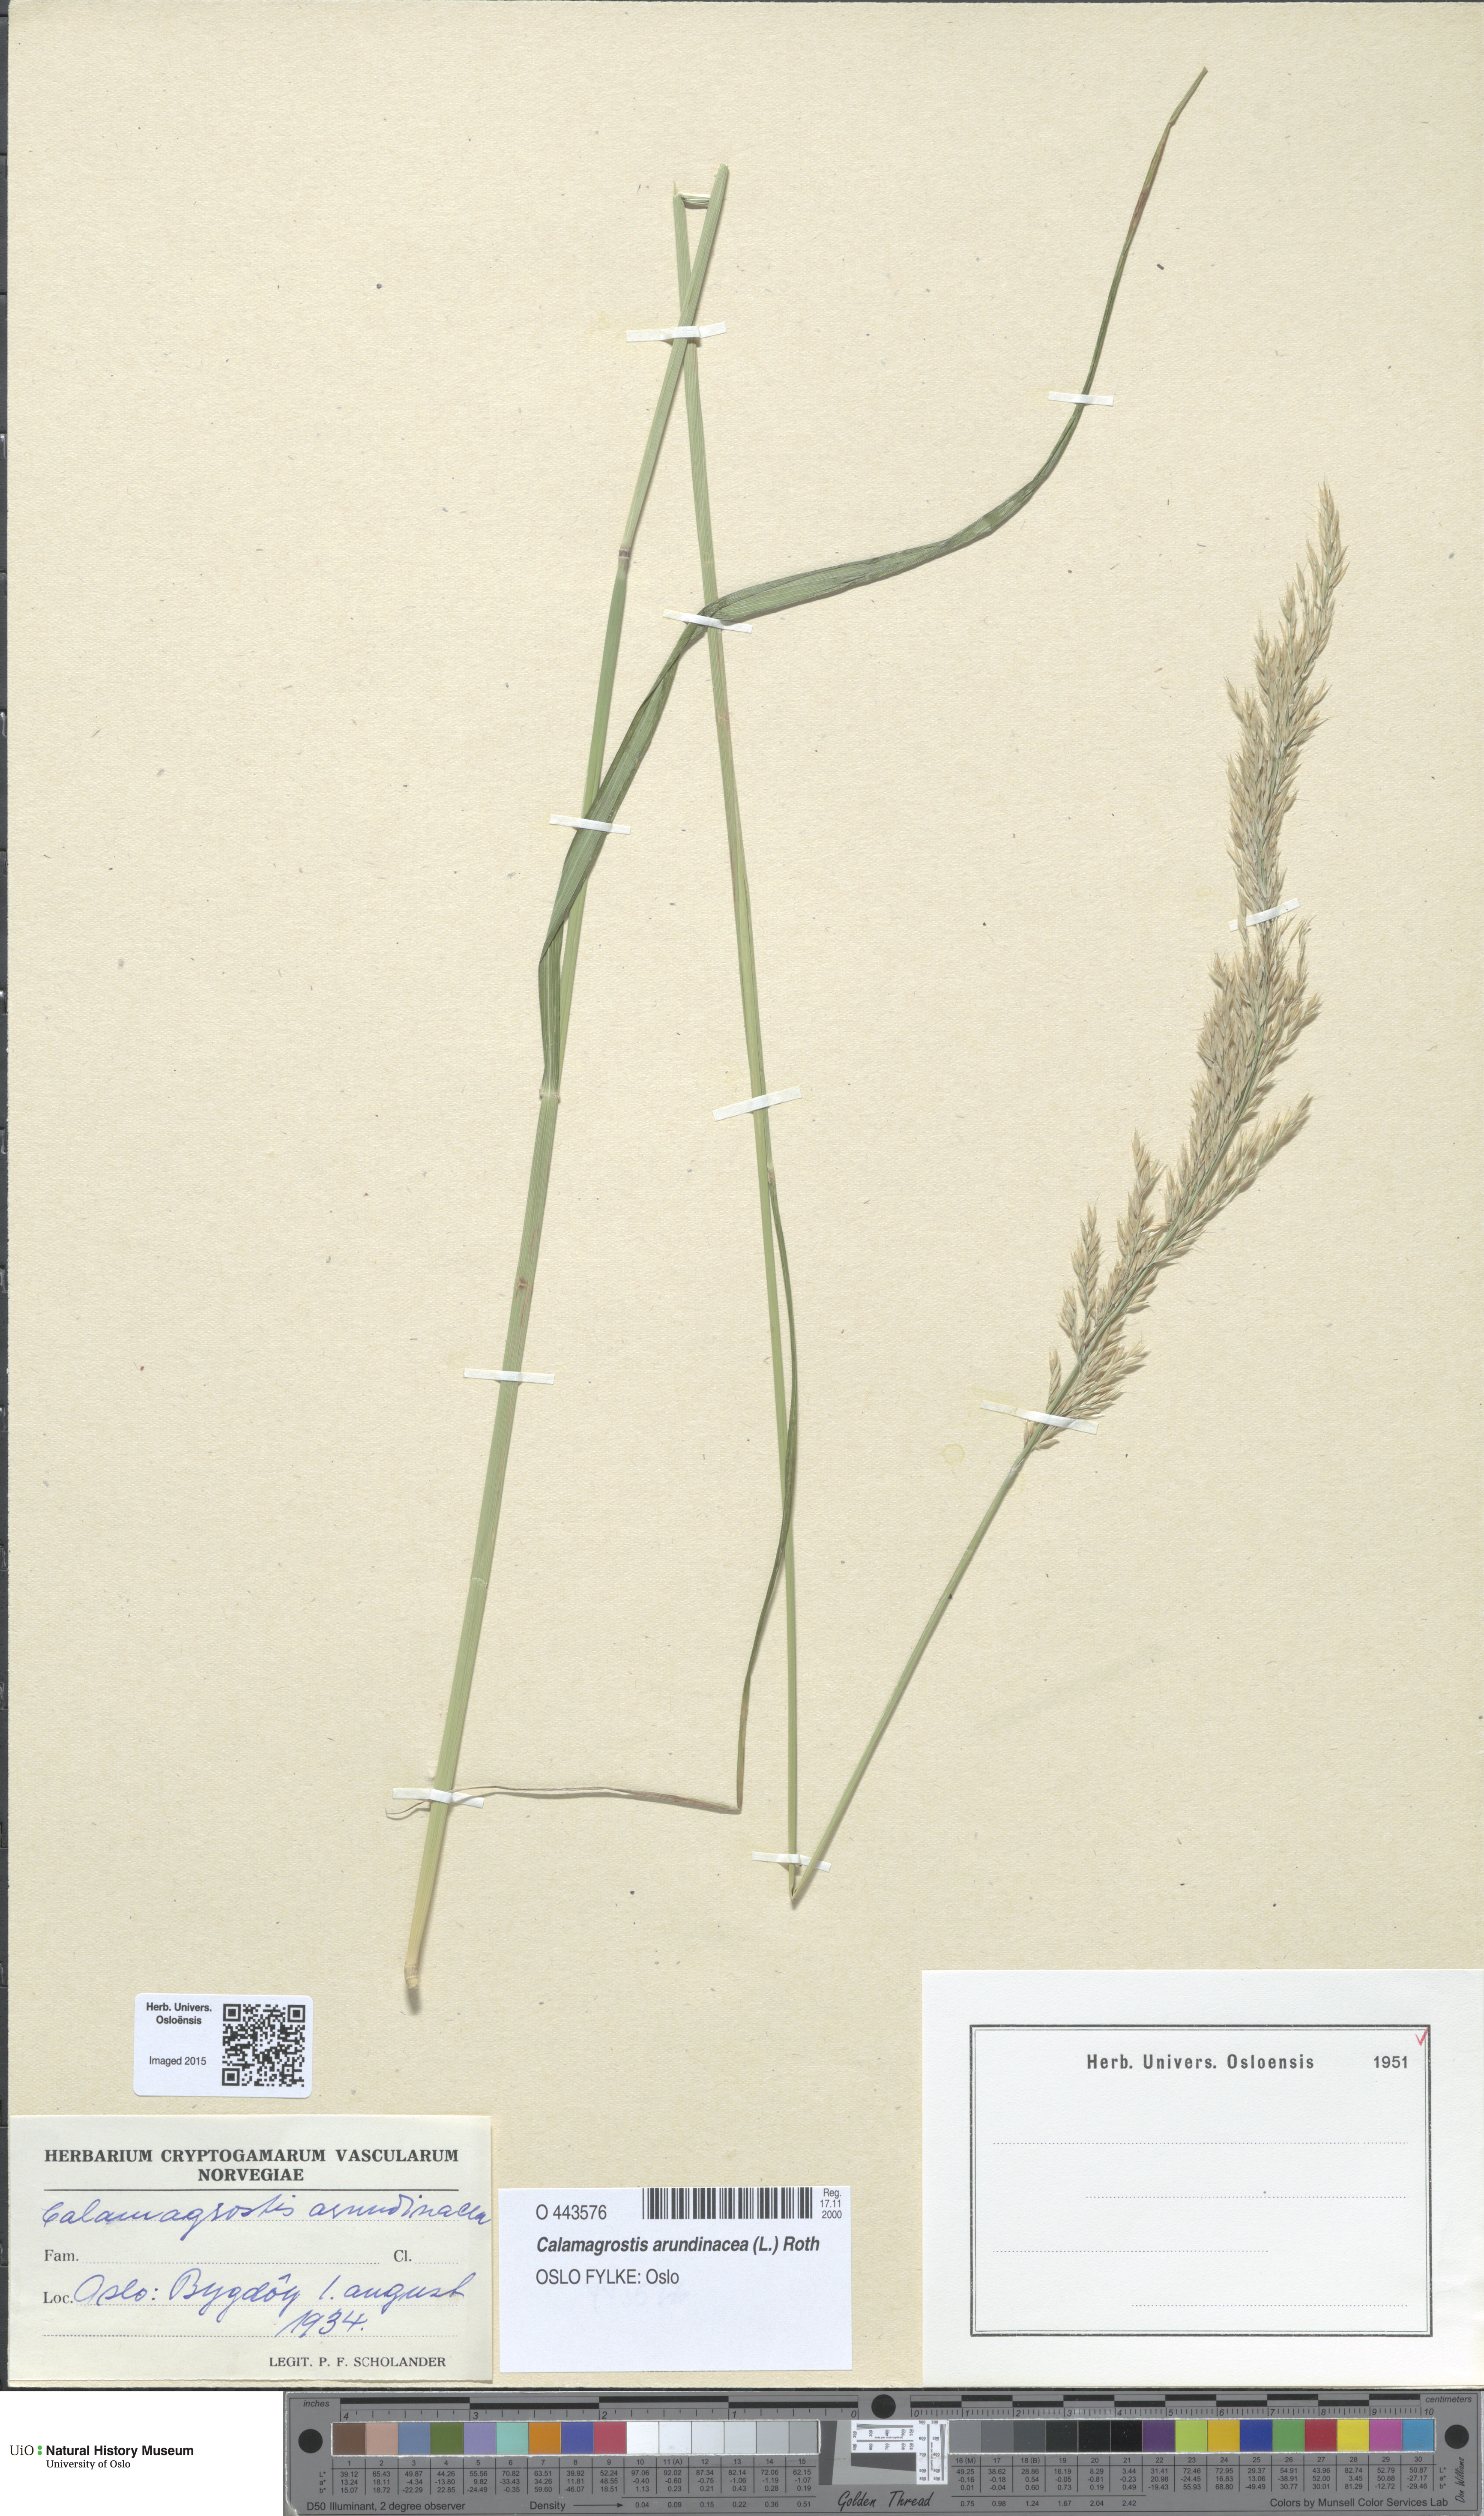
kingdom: Plantae
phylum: Tracheophyta
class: Liliopsida
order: Poales
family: Poaceae
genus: Calamagrostis
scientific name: Calamagrostis arundinacea
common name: Metskastik
